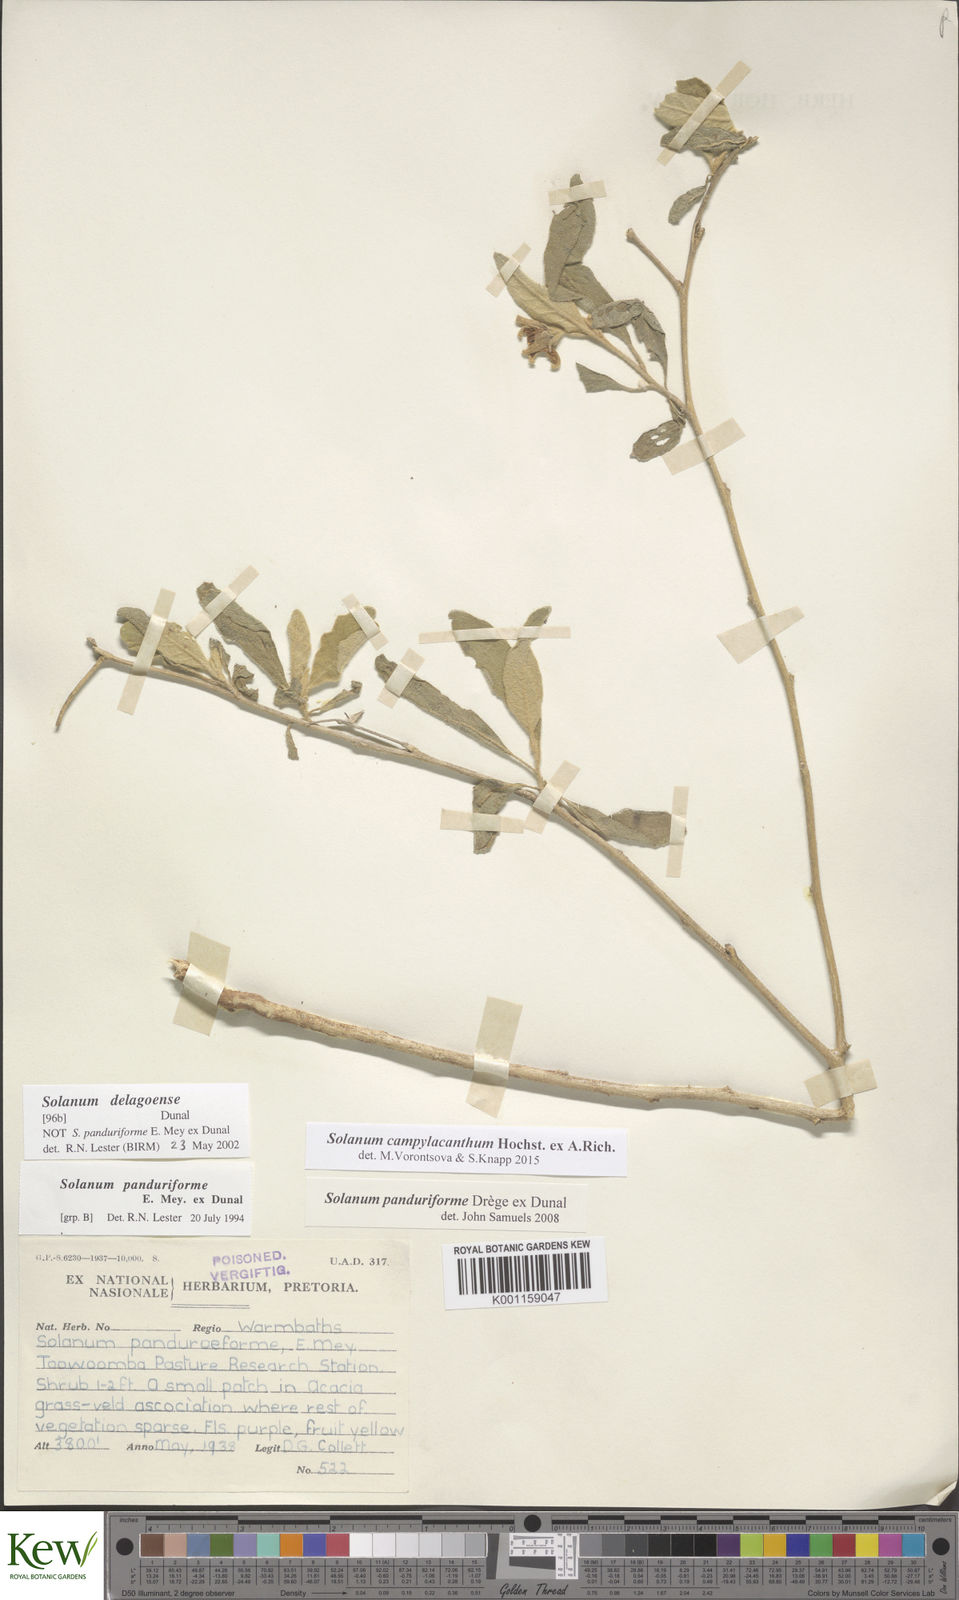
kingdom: Plantae
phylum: Tracheophyta
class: Magnoliopsida
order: Solanales
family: Solanaceae
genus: Solanum
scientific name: Solanum campylacanthum
